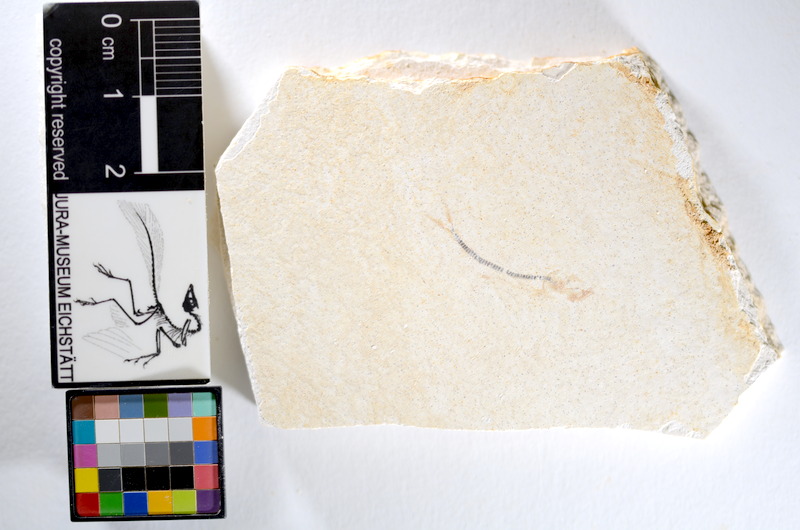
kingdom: Animalia
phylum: Chordata
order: Salmoniformes
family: Orthogonikleithridae
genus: Orthogonikleithrus
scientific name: Orthogonikleithrus hoelli
